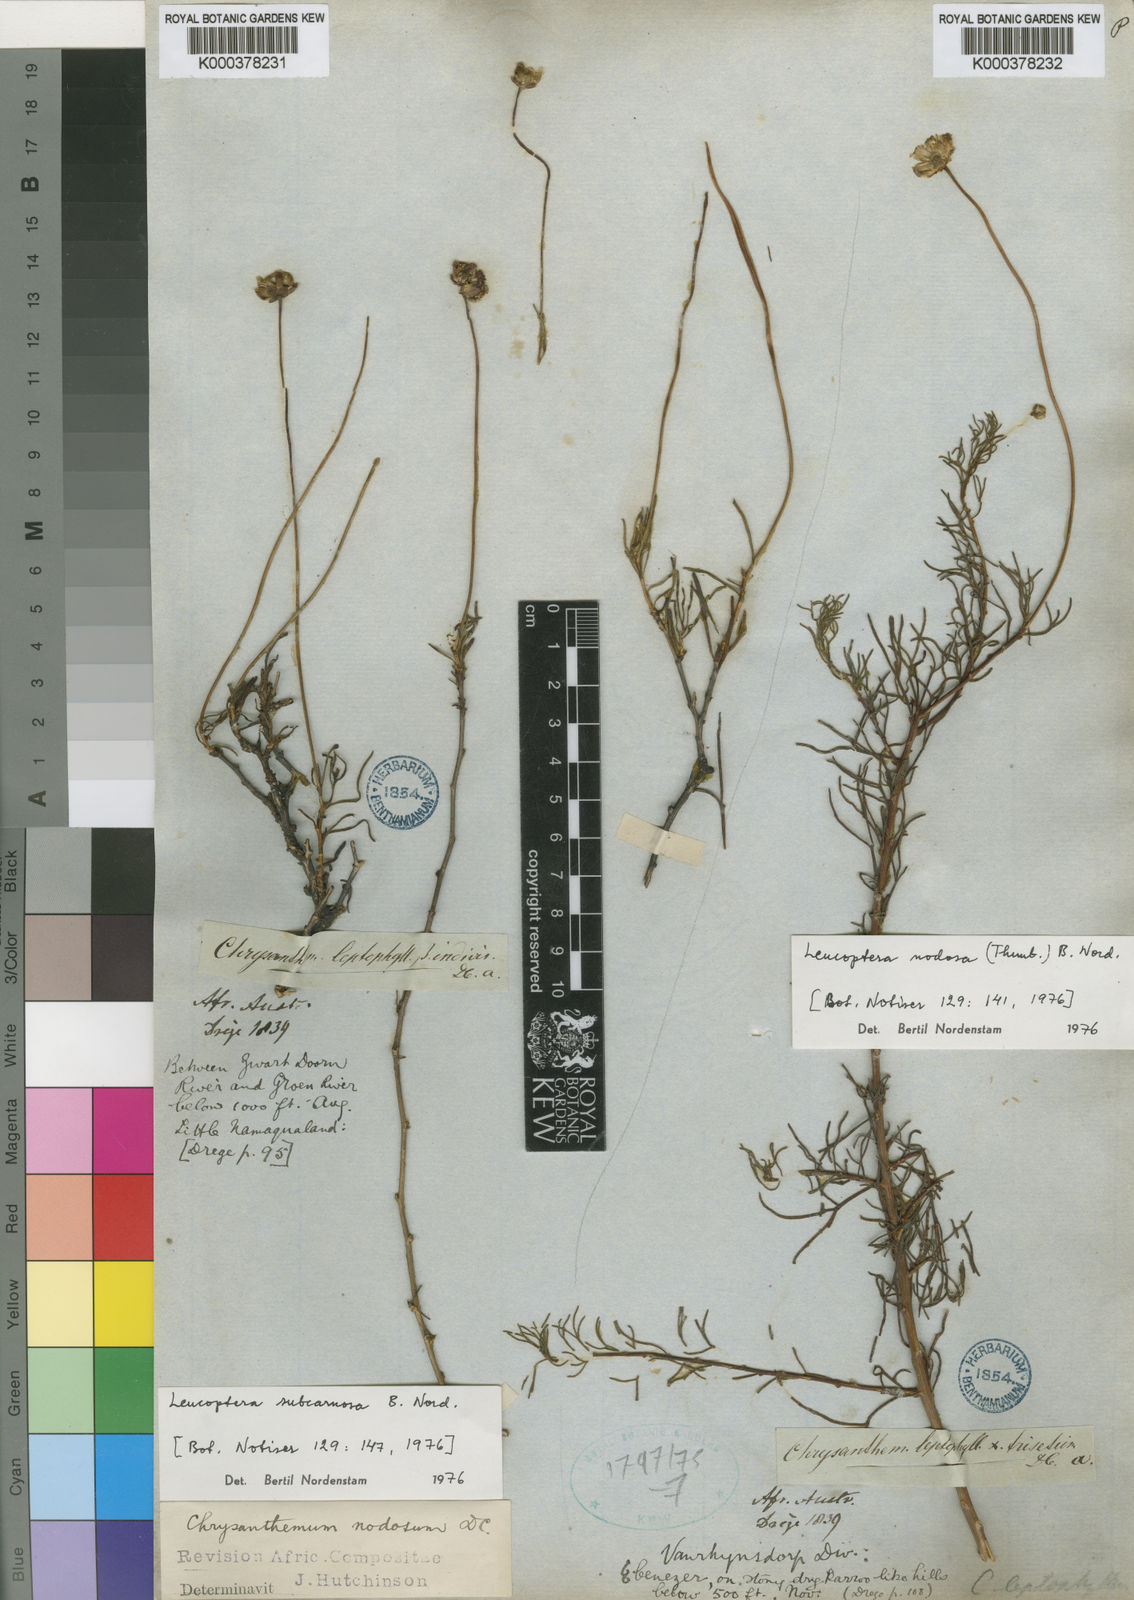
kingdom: Plantae
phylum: Tracheophyta
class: Magnoliopsida
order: Asterales
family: Asteraceae
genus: Leucoptera
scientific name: Leucoptera nodosa
